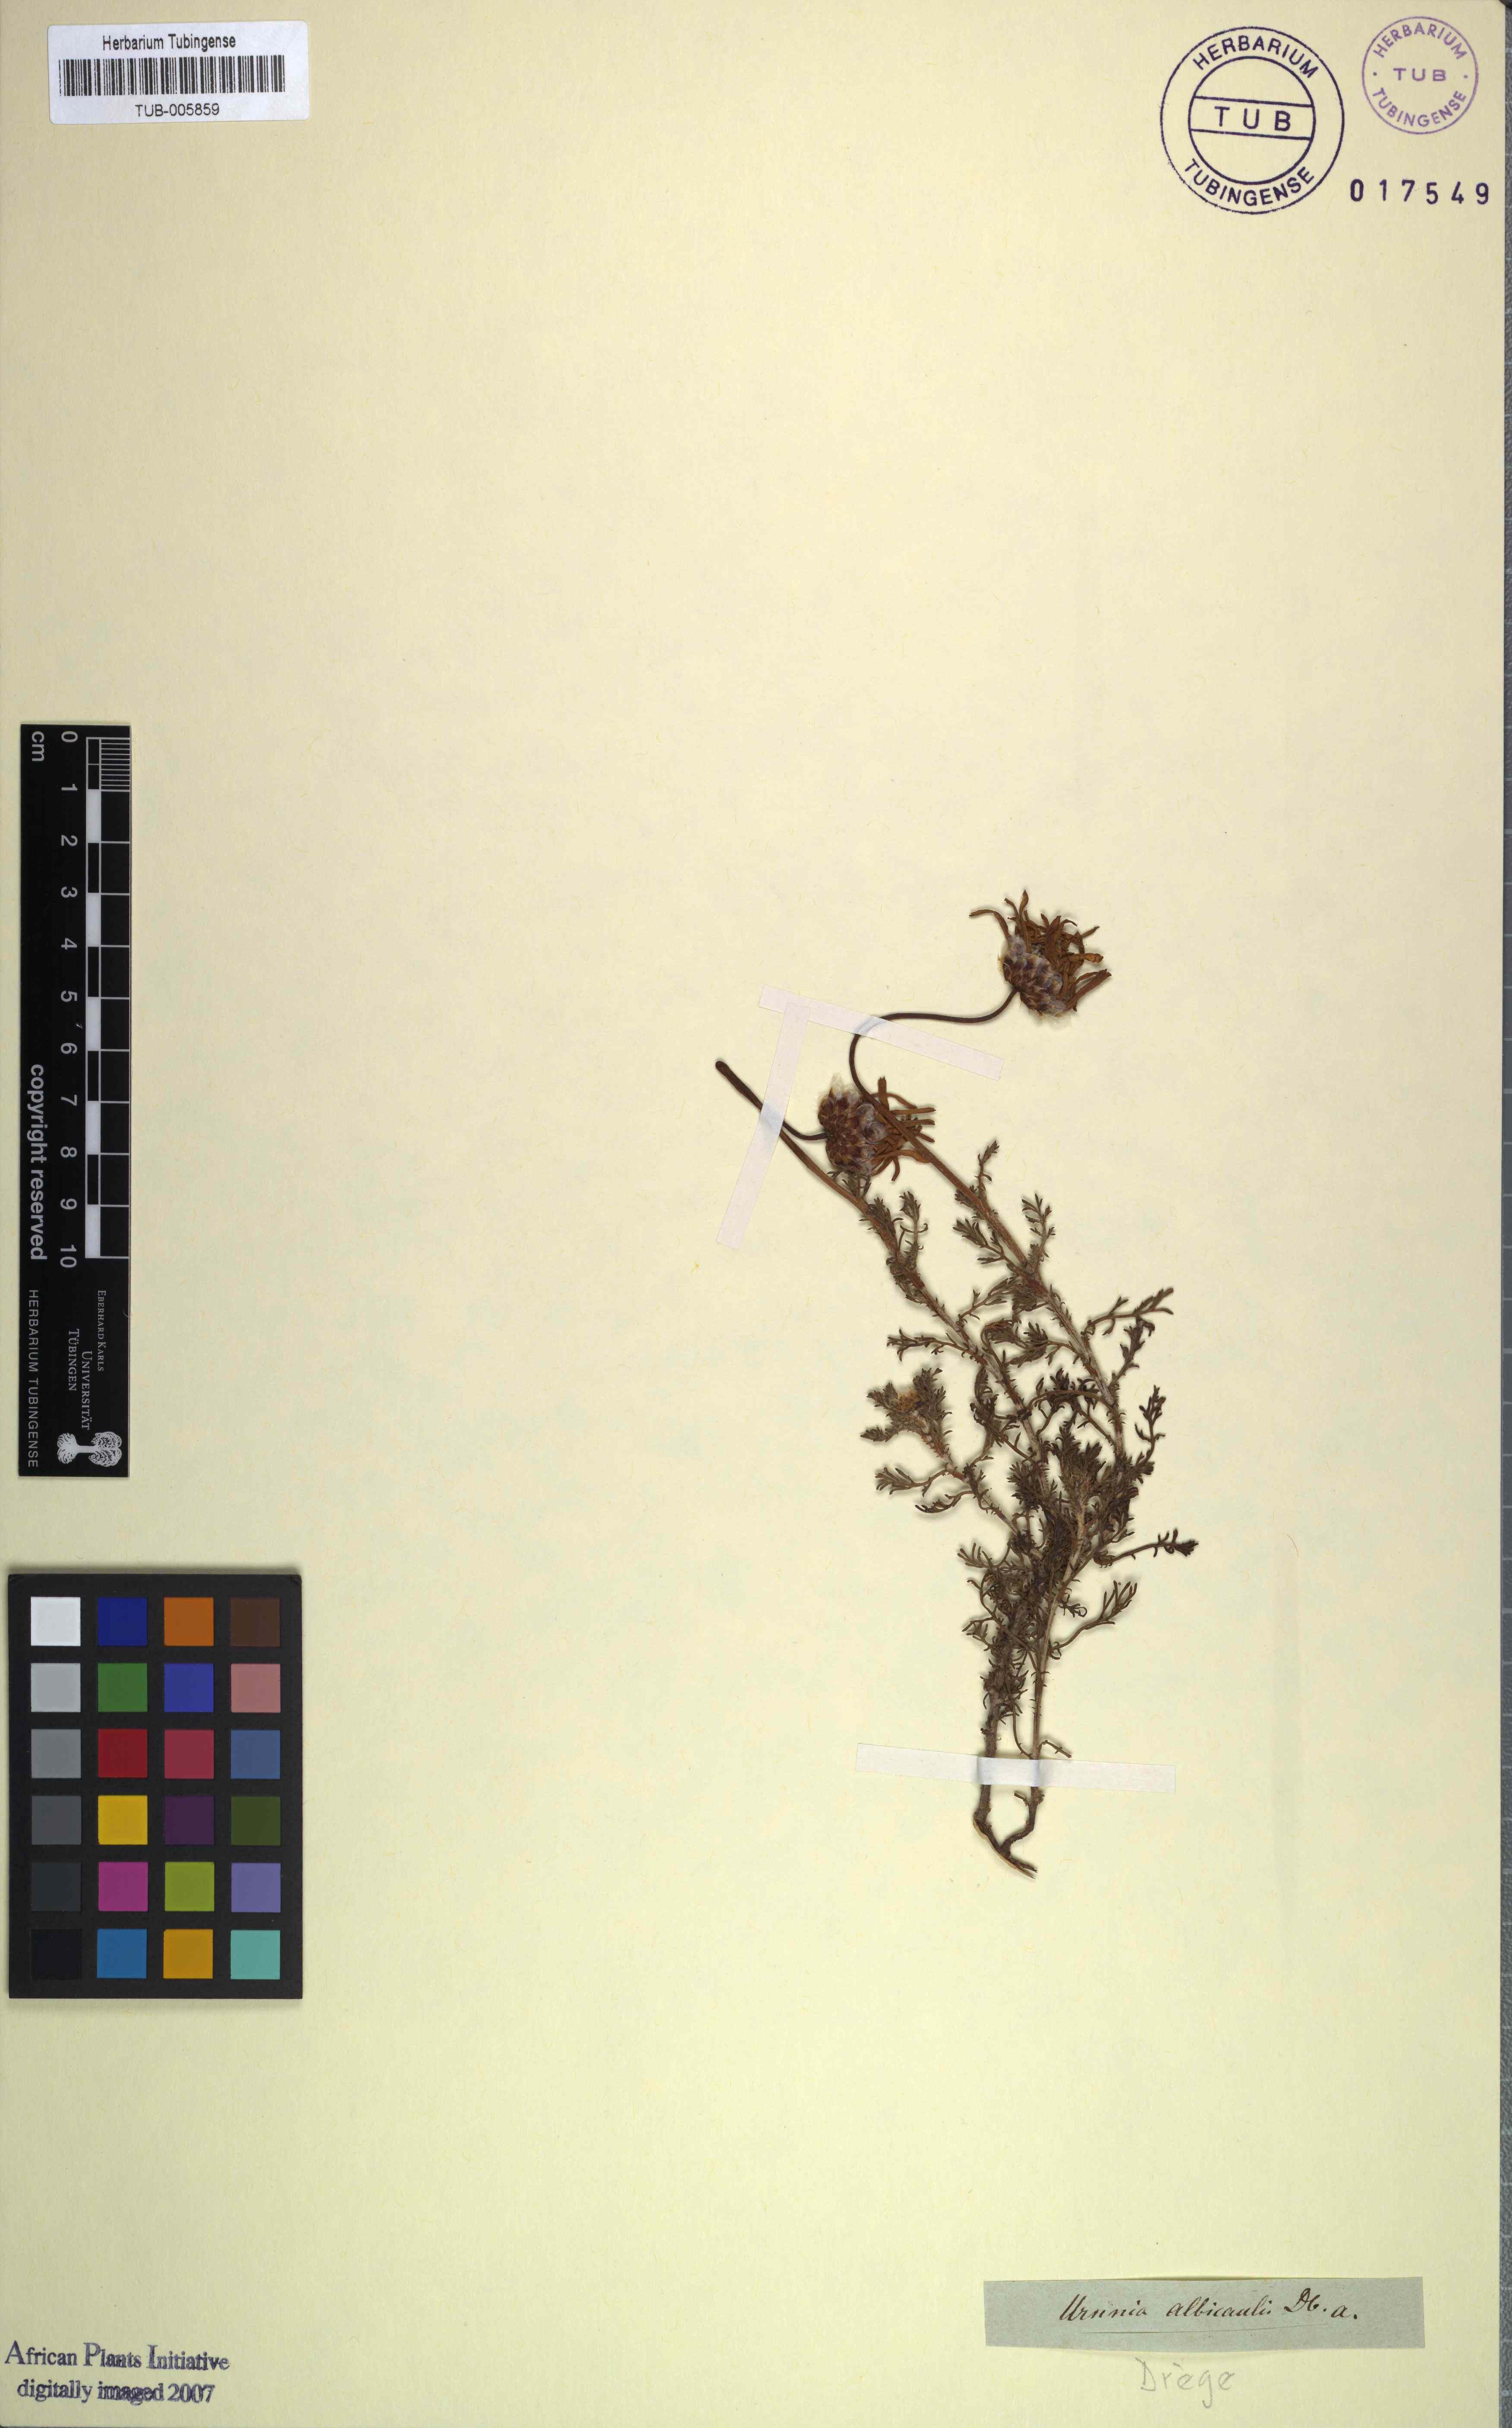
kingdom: Plantae
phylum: Tracheophyta
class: Magnoliopsida
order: Asterales
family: Asteraceae
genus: Ursinia
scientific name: Ursinia albicaulis
